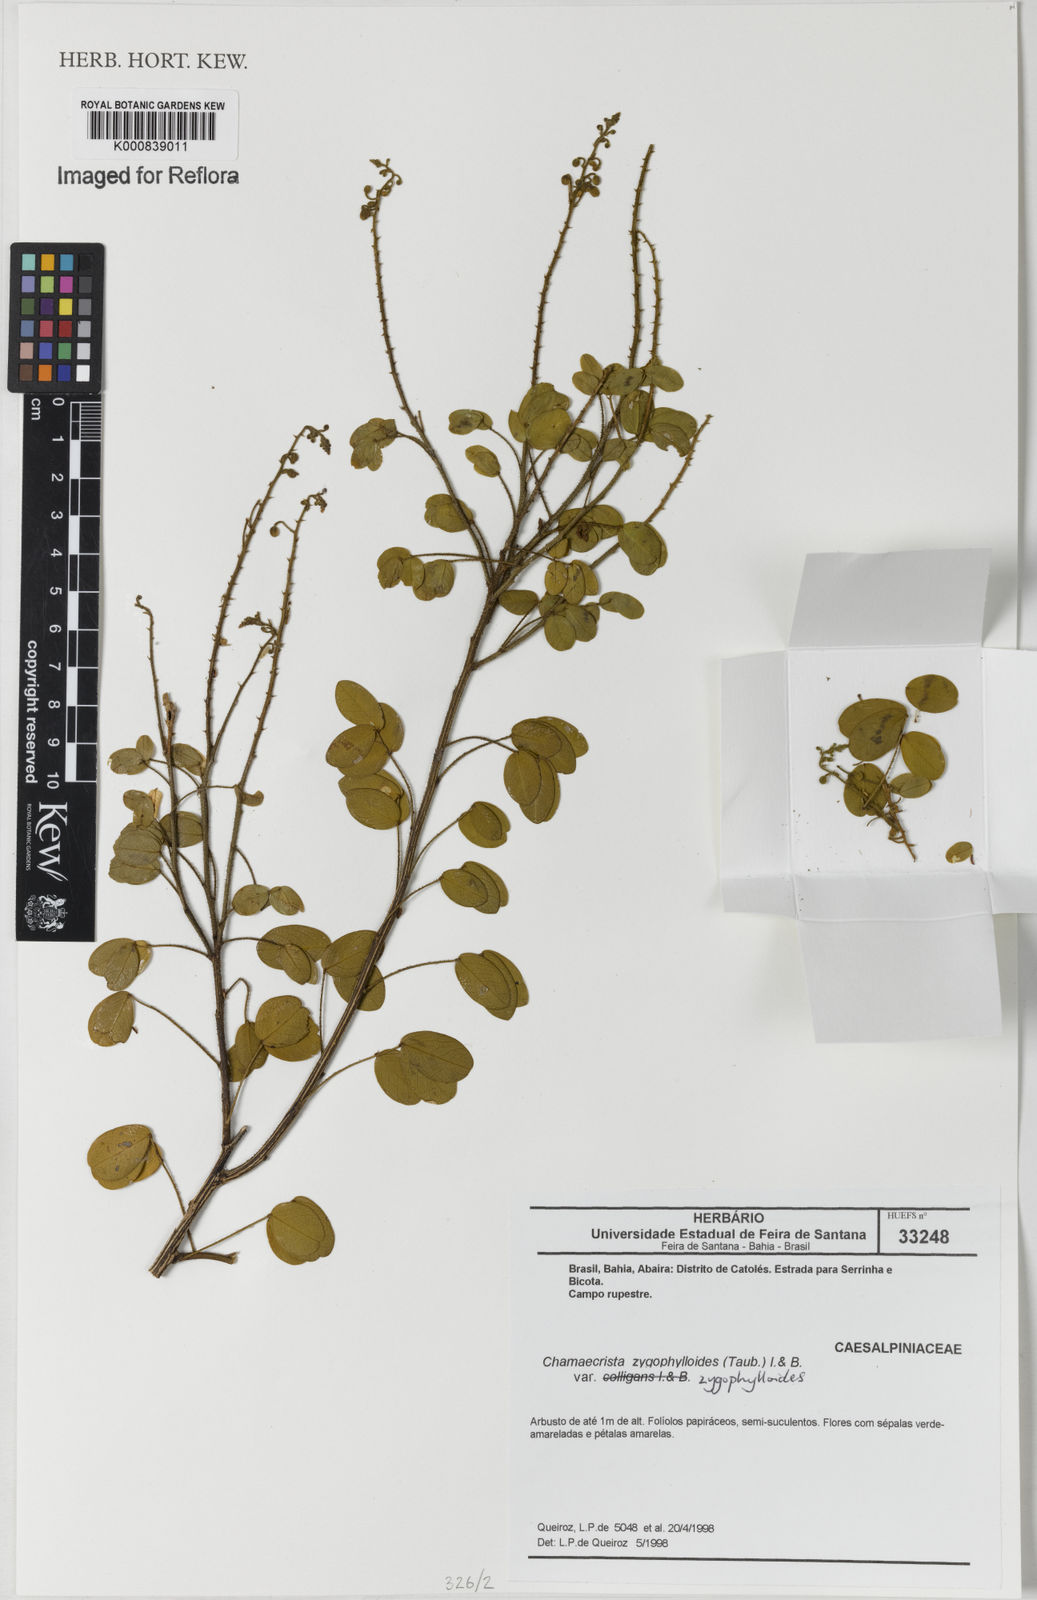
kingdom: Plantae
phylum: Tracheophyta
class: Magnoliopsida
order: Fabales
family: Fabaceae
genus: Chamaecrista
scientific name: Chamaecrista zygophylloides
